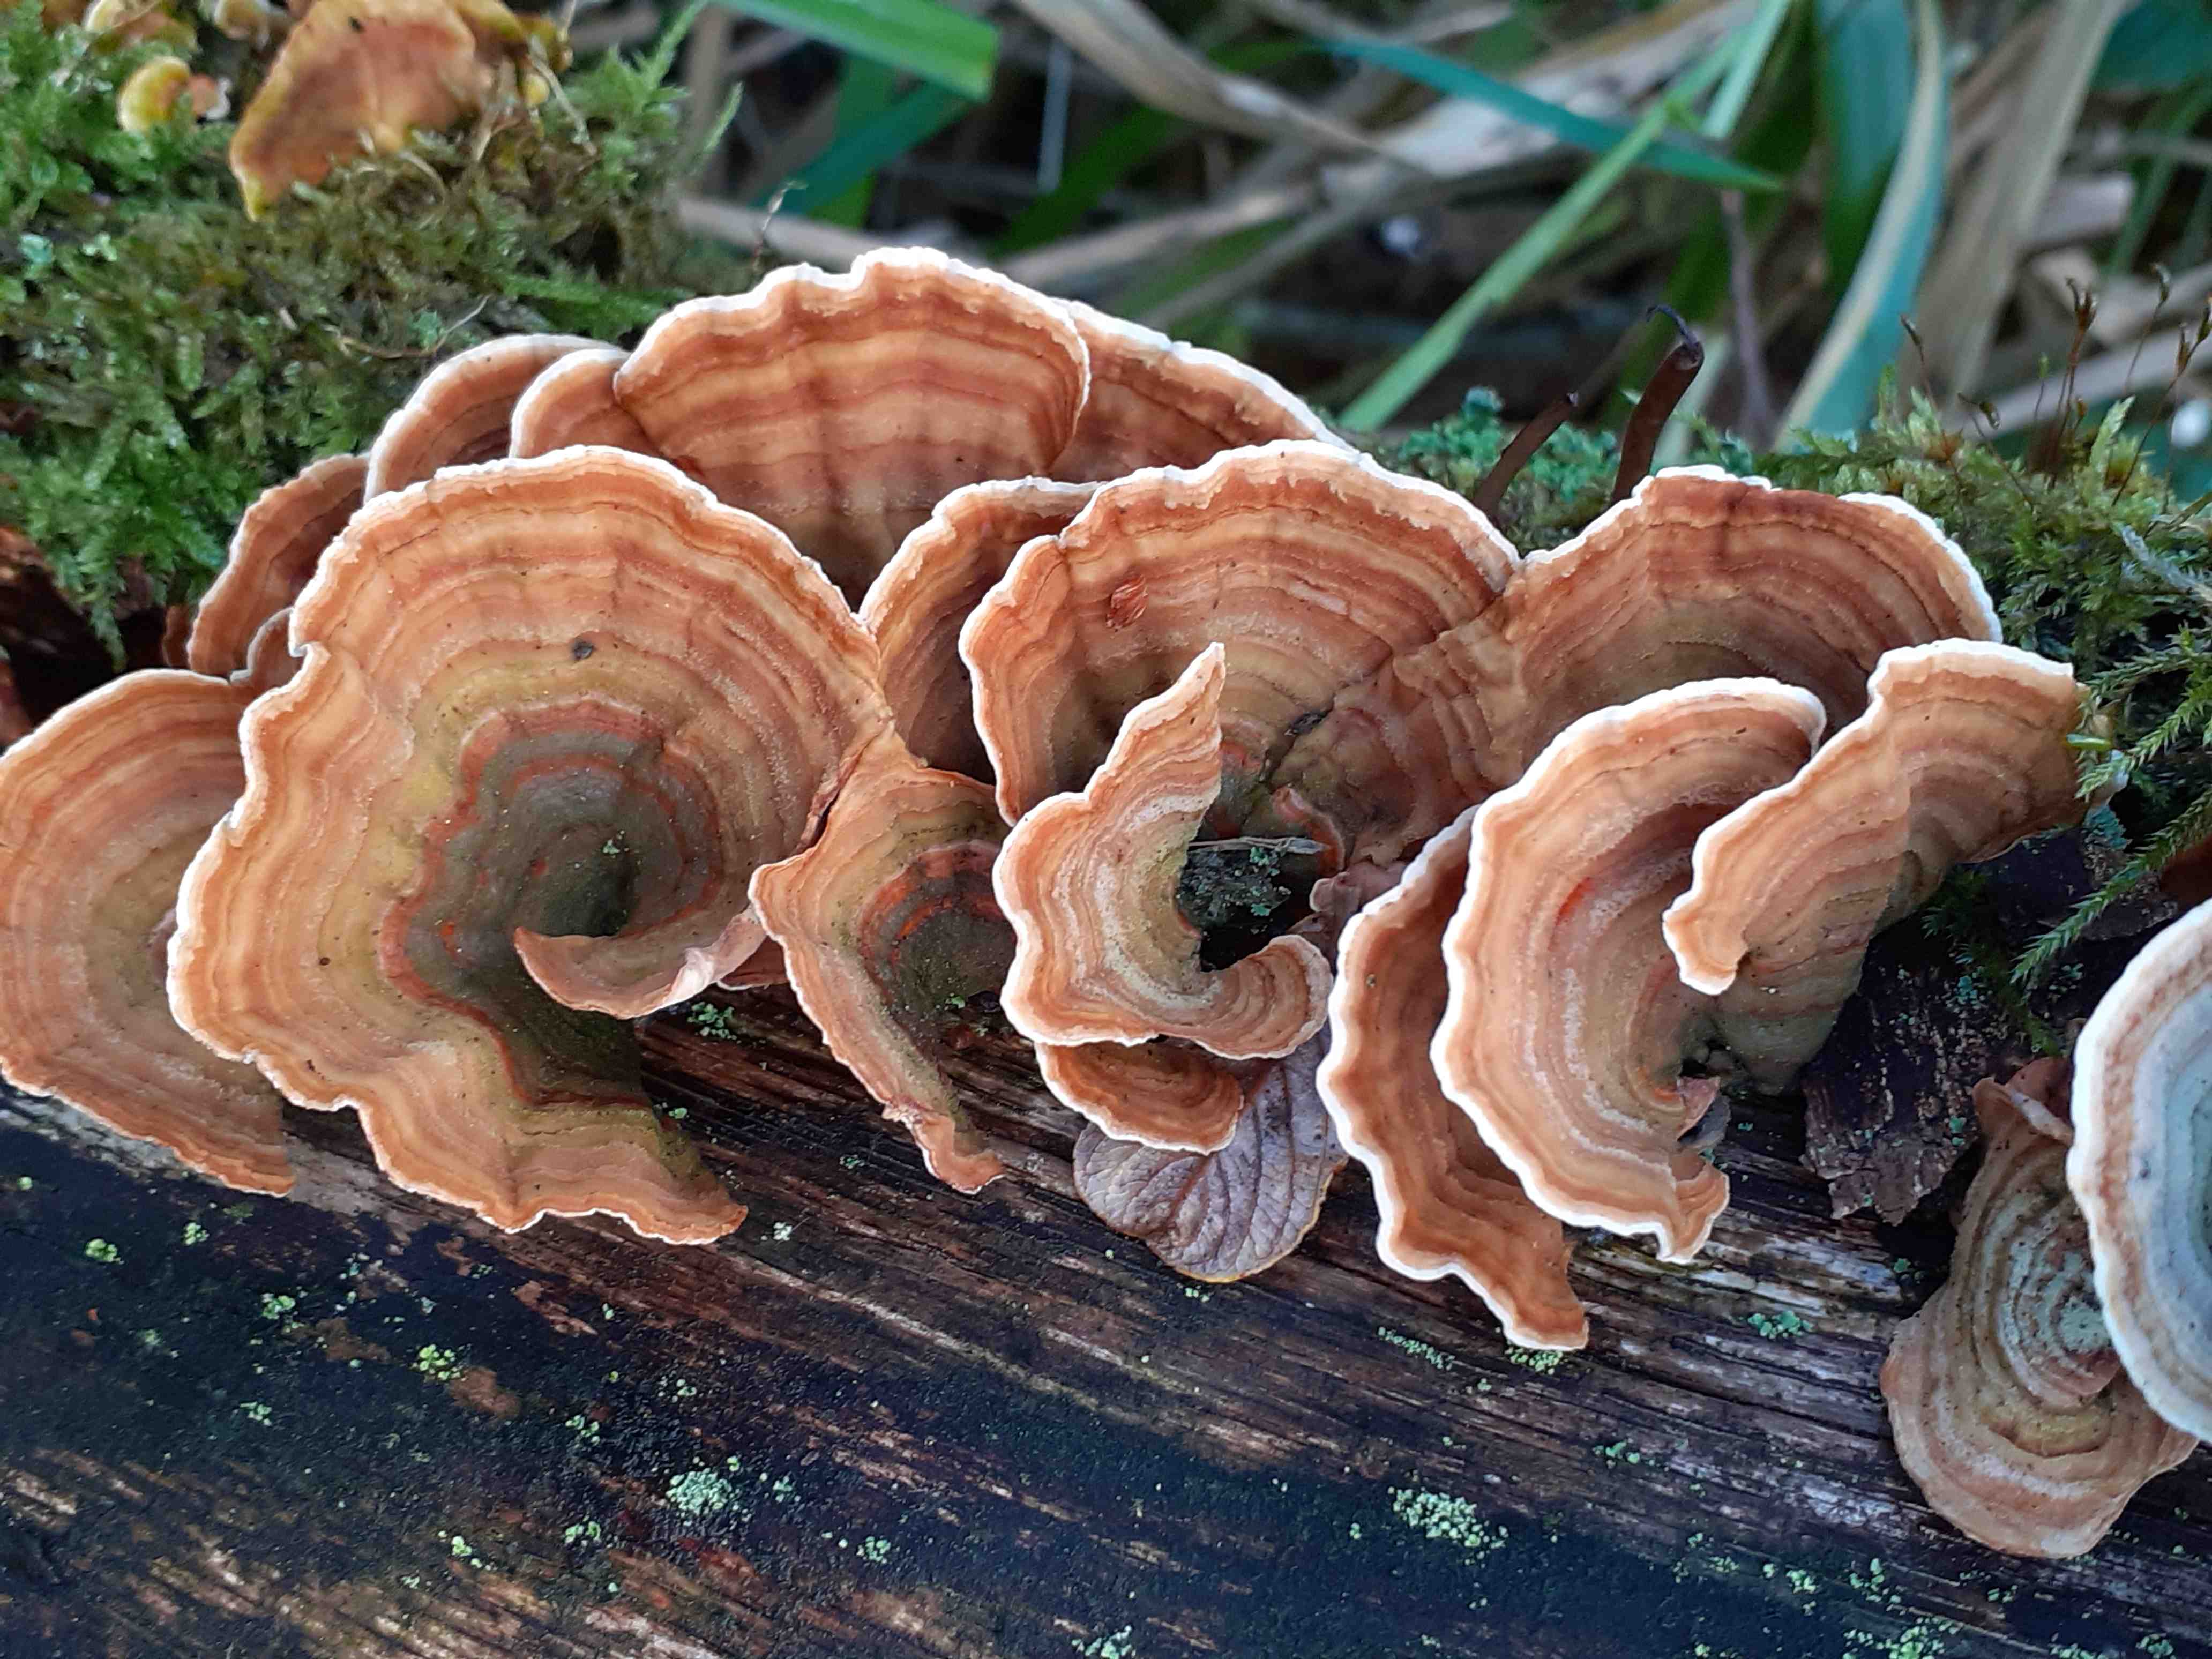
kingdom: Fungi
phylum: Basidiomycota
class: Agaricomycetes
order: Russulales
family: Stereaceae
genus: Stereum
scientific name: Stereum subtomentosum
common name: smuk lædersvamp
